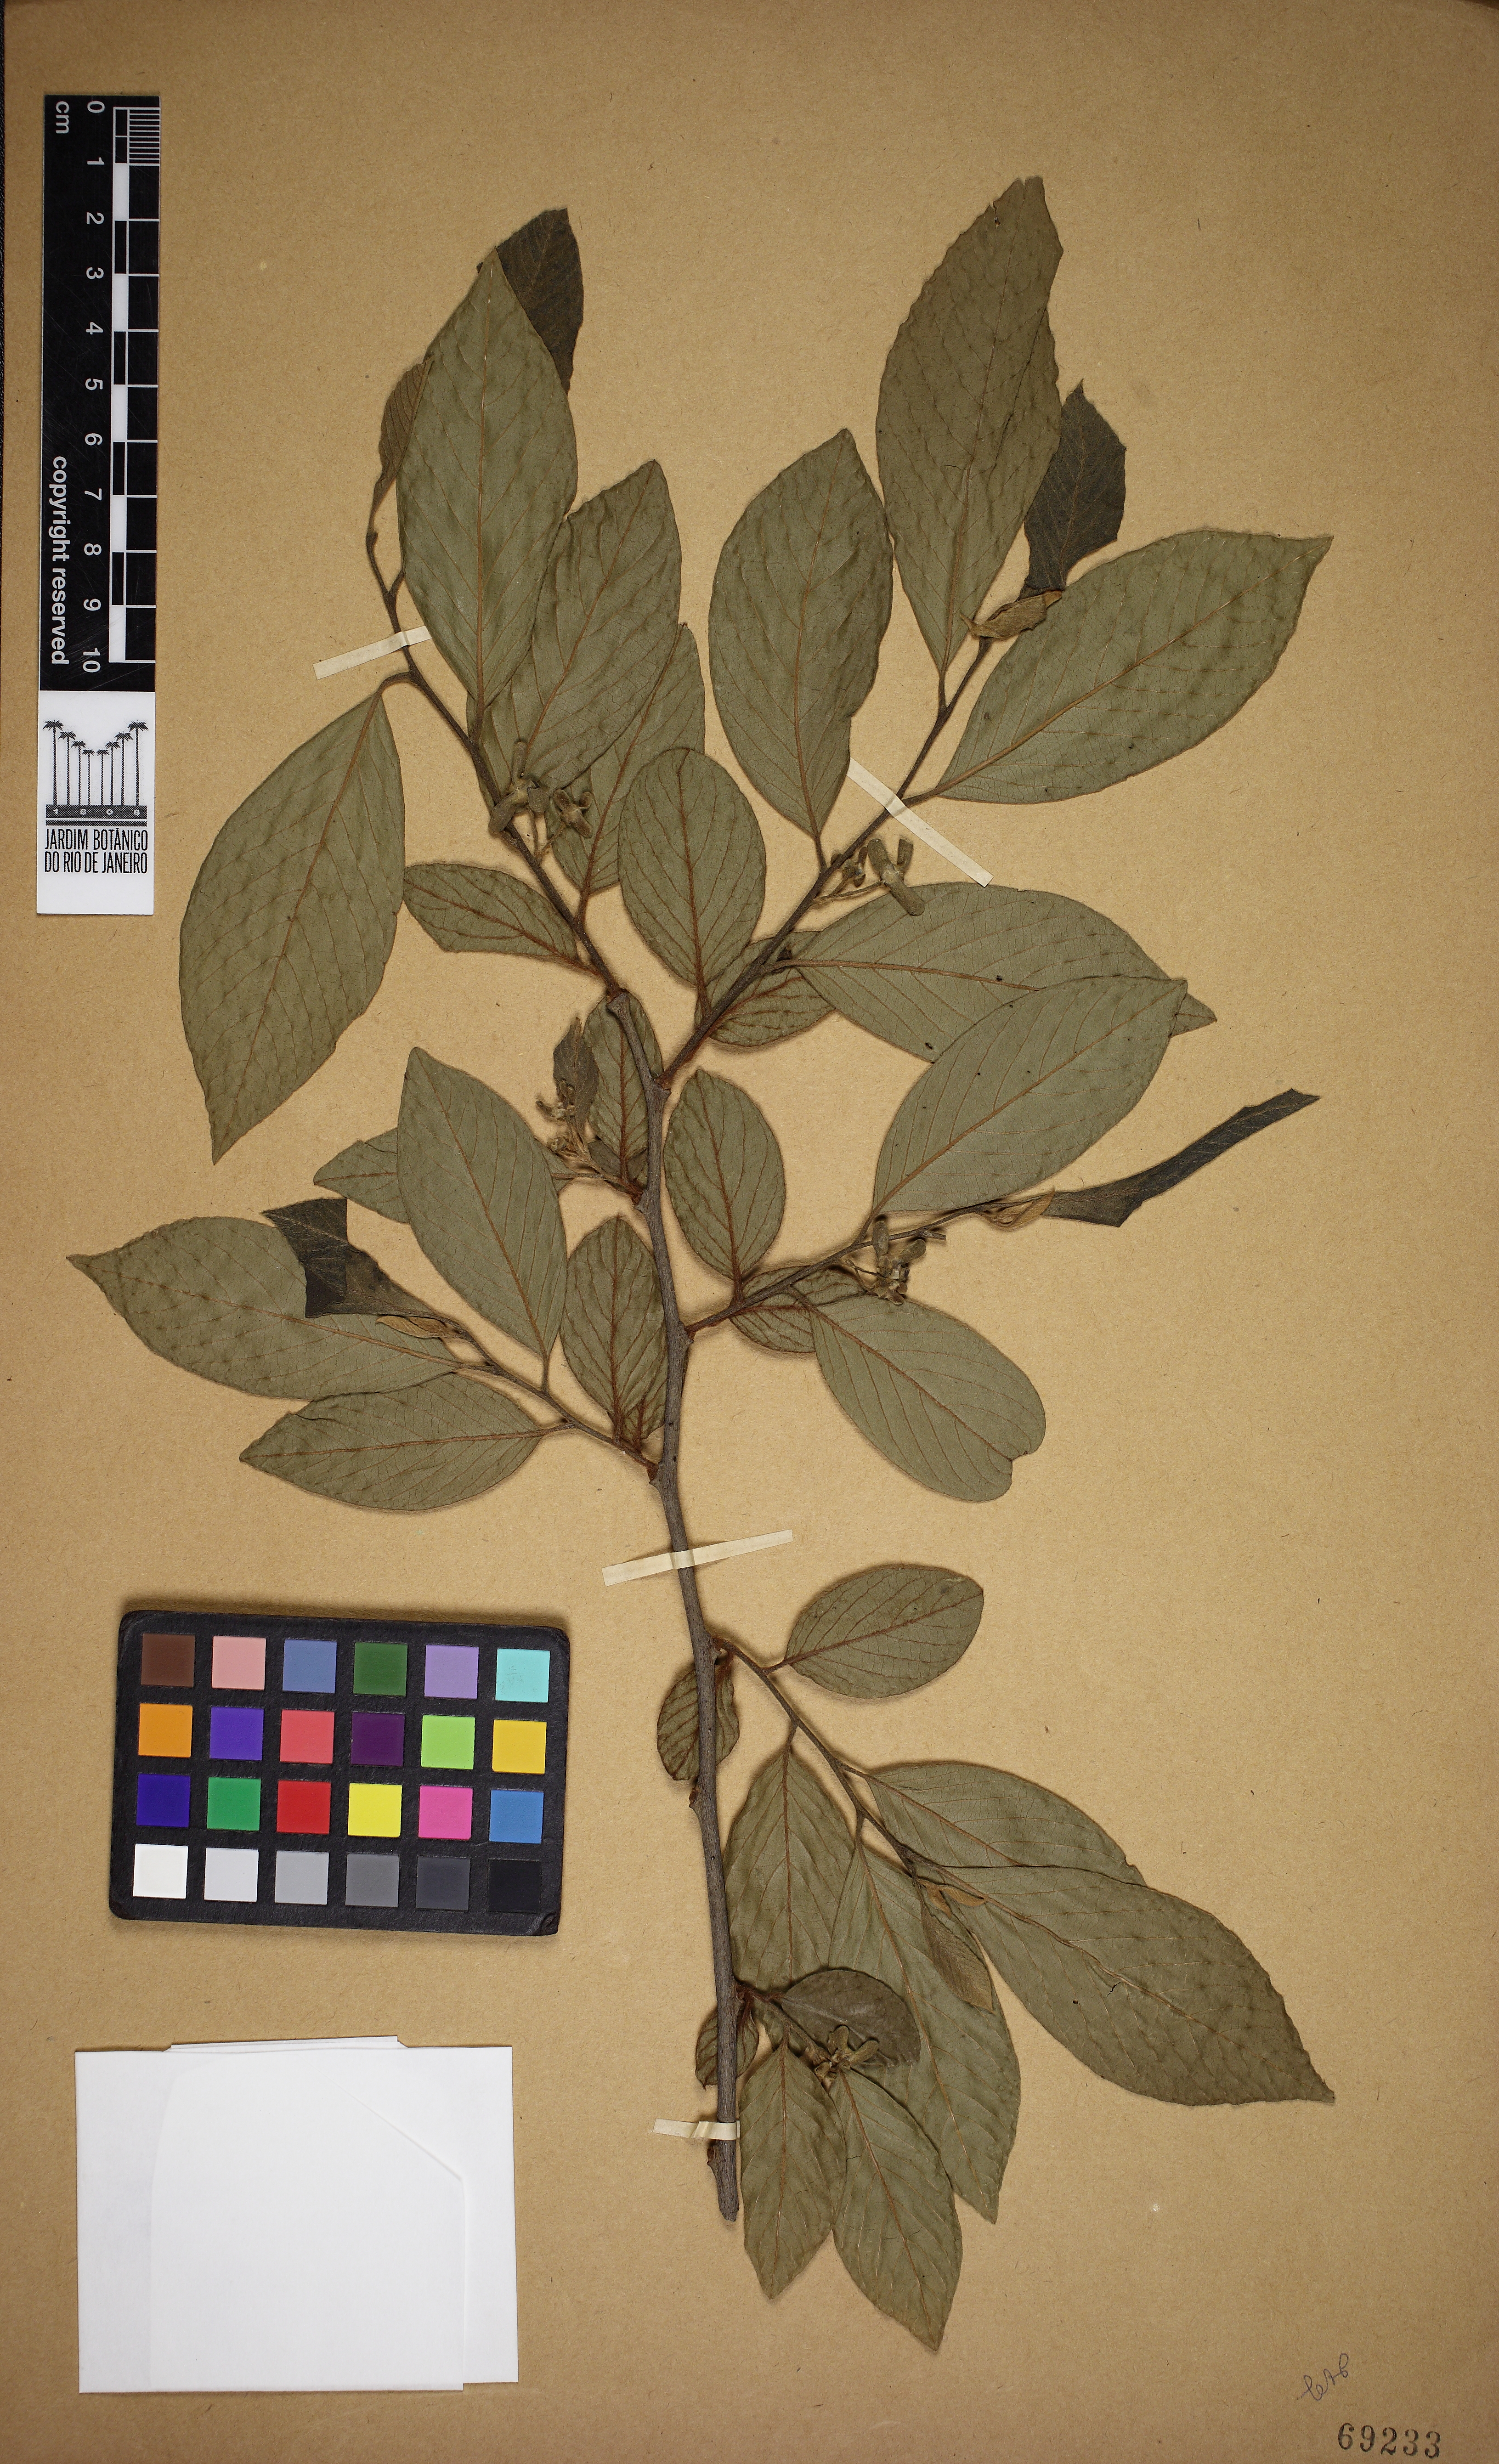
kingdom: Plantae
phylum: Tracheophyta
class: Magnoliopsida
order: Magnoliales
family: Annonaceae
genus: Annona
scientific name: Annona sylvatica
